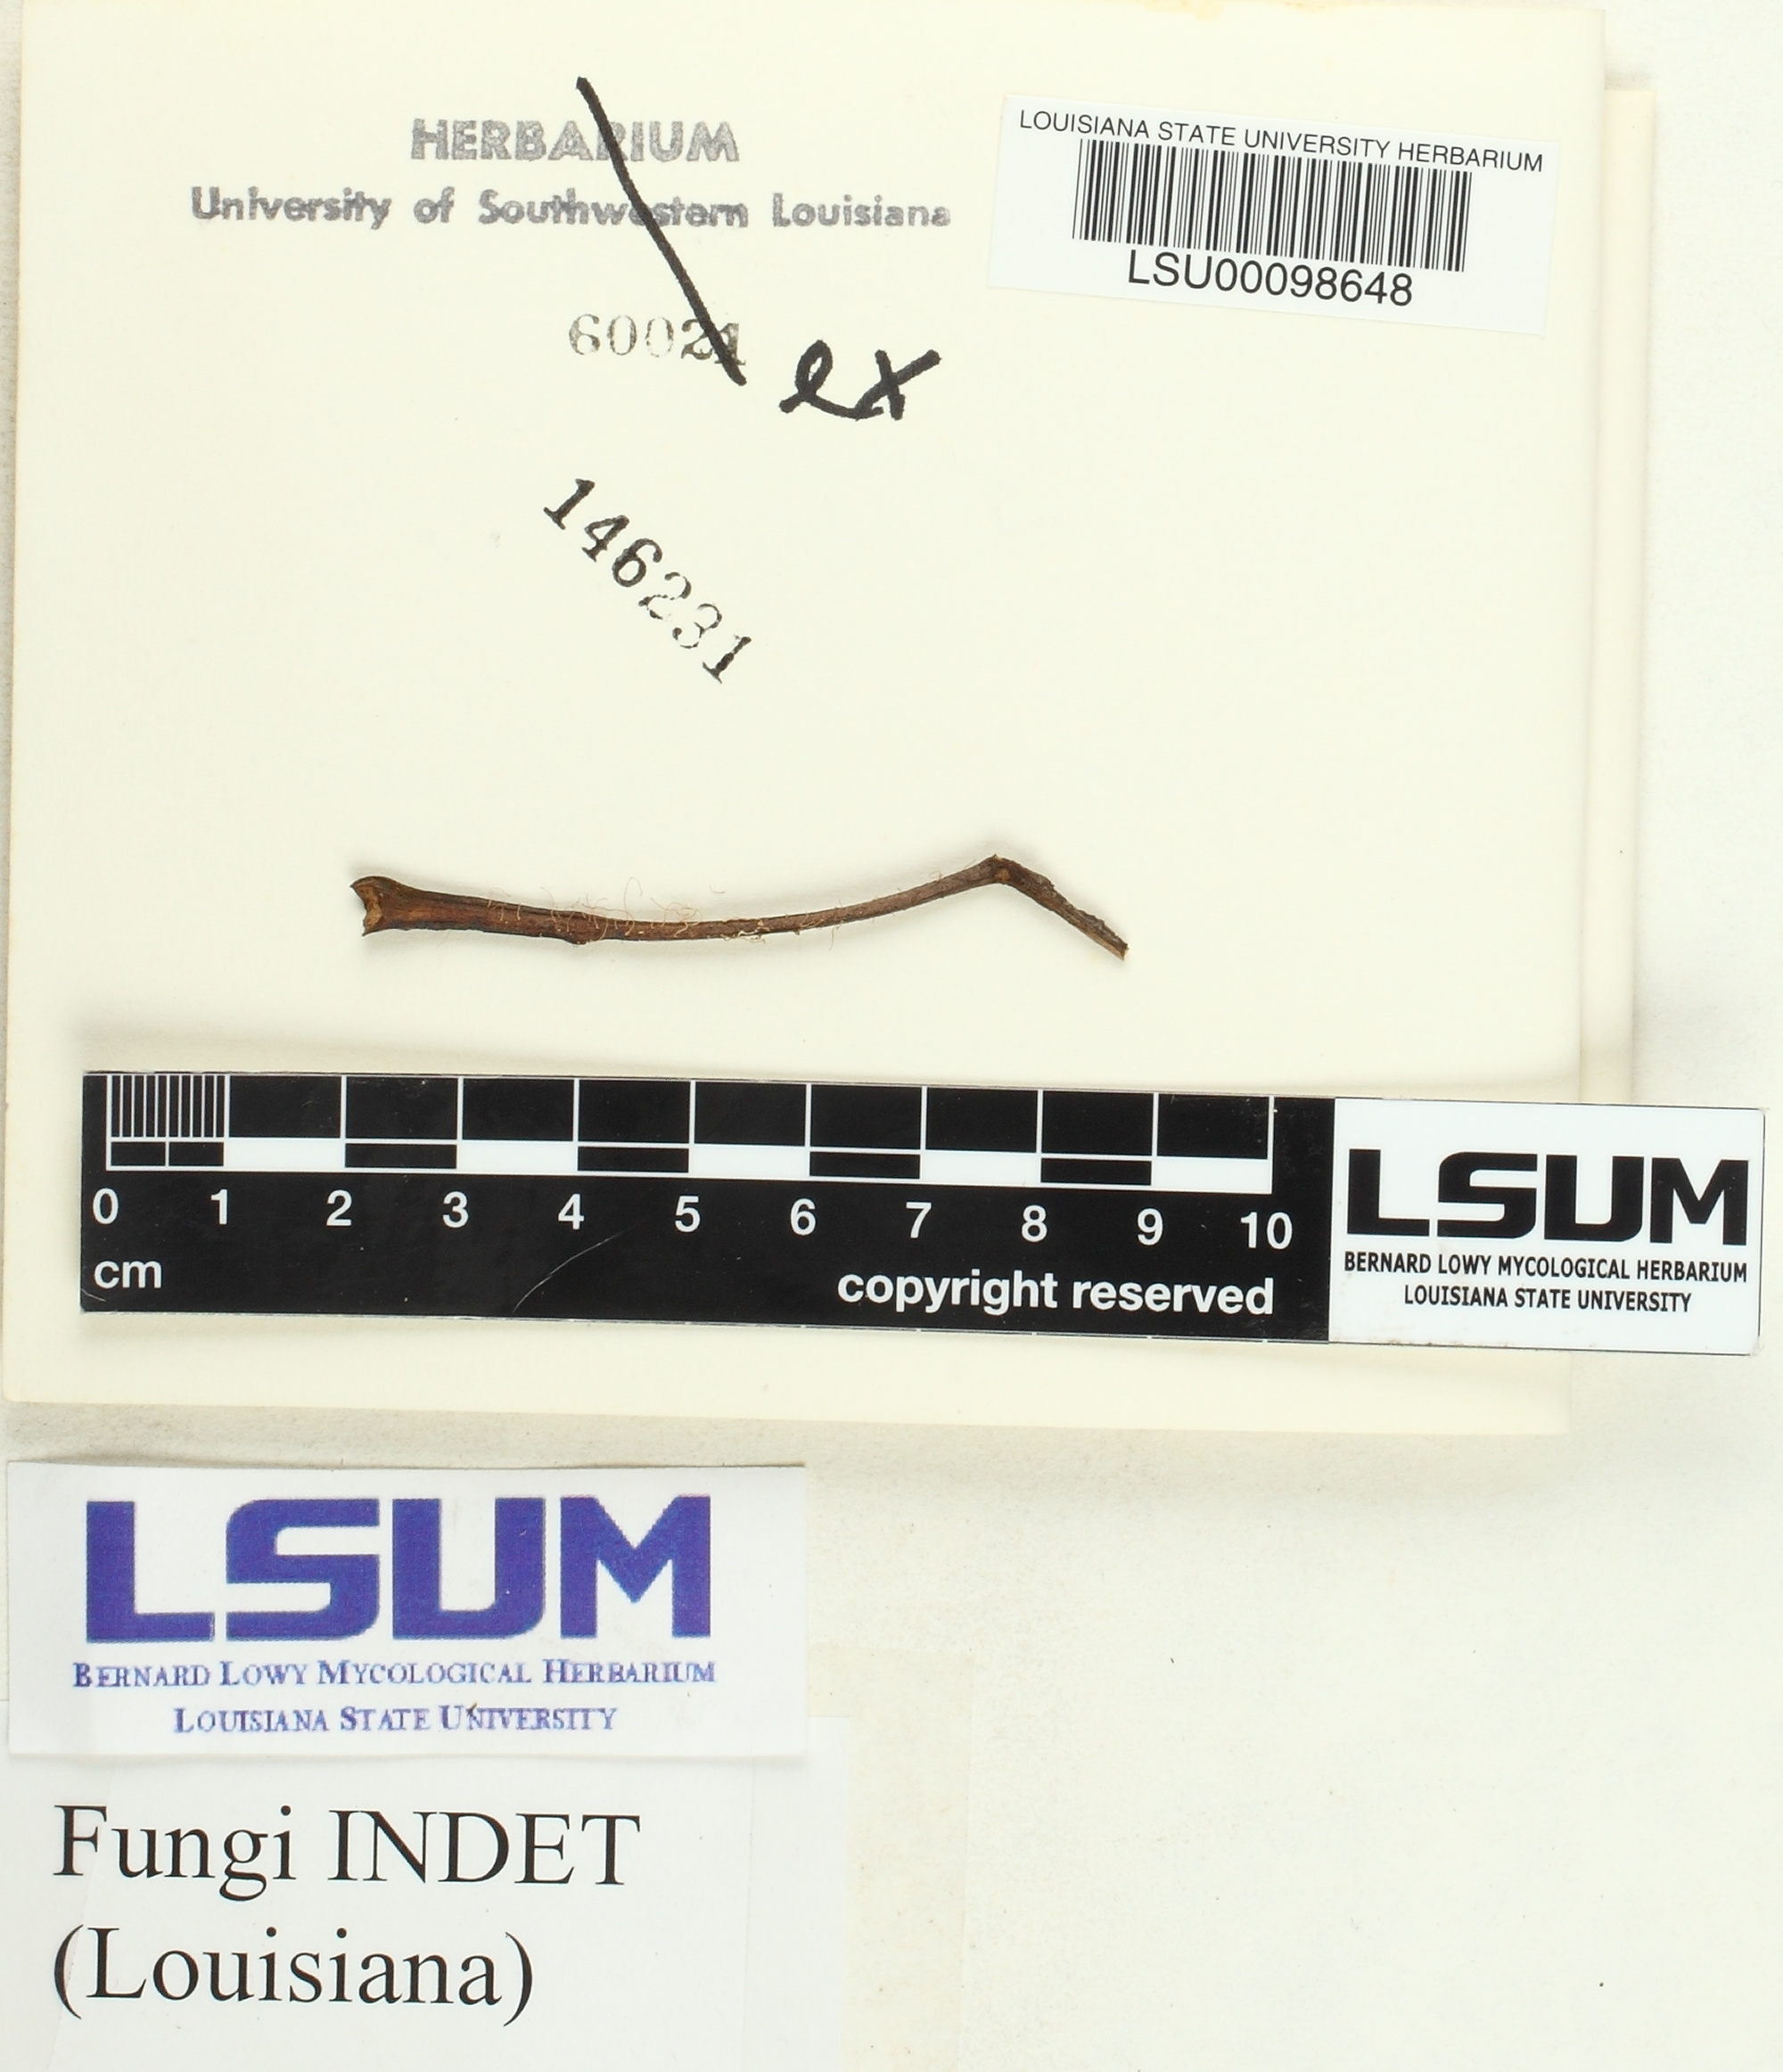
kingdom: Fungi
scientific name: Fungi
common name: Fungi
